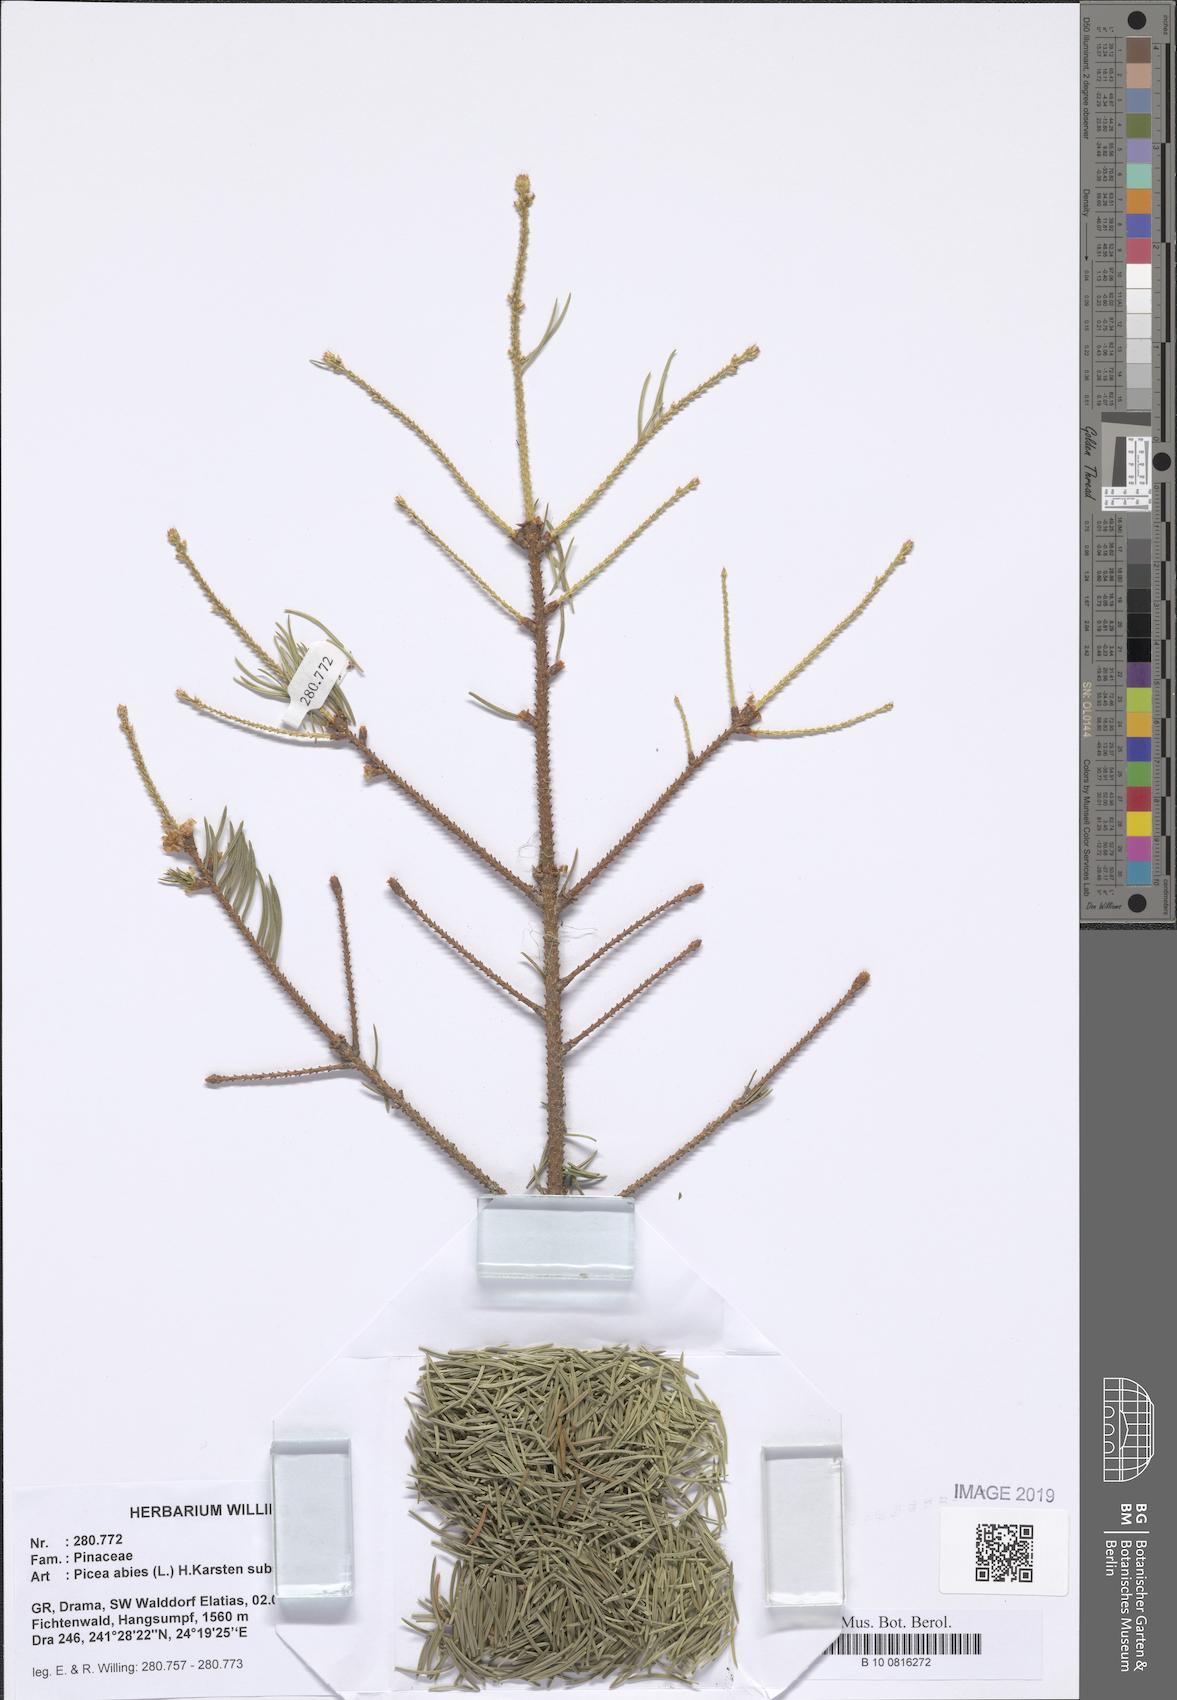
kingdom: Plantae
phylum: Tracheophyta
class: Pinopsida
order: Pinales
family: Pinaceae
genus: Picea
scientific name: Picea abies
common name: Norway spruce
